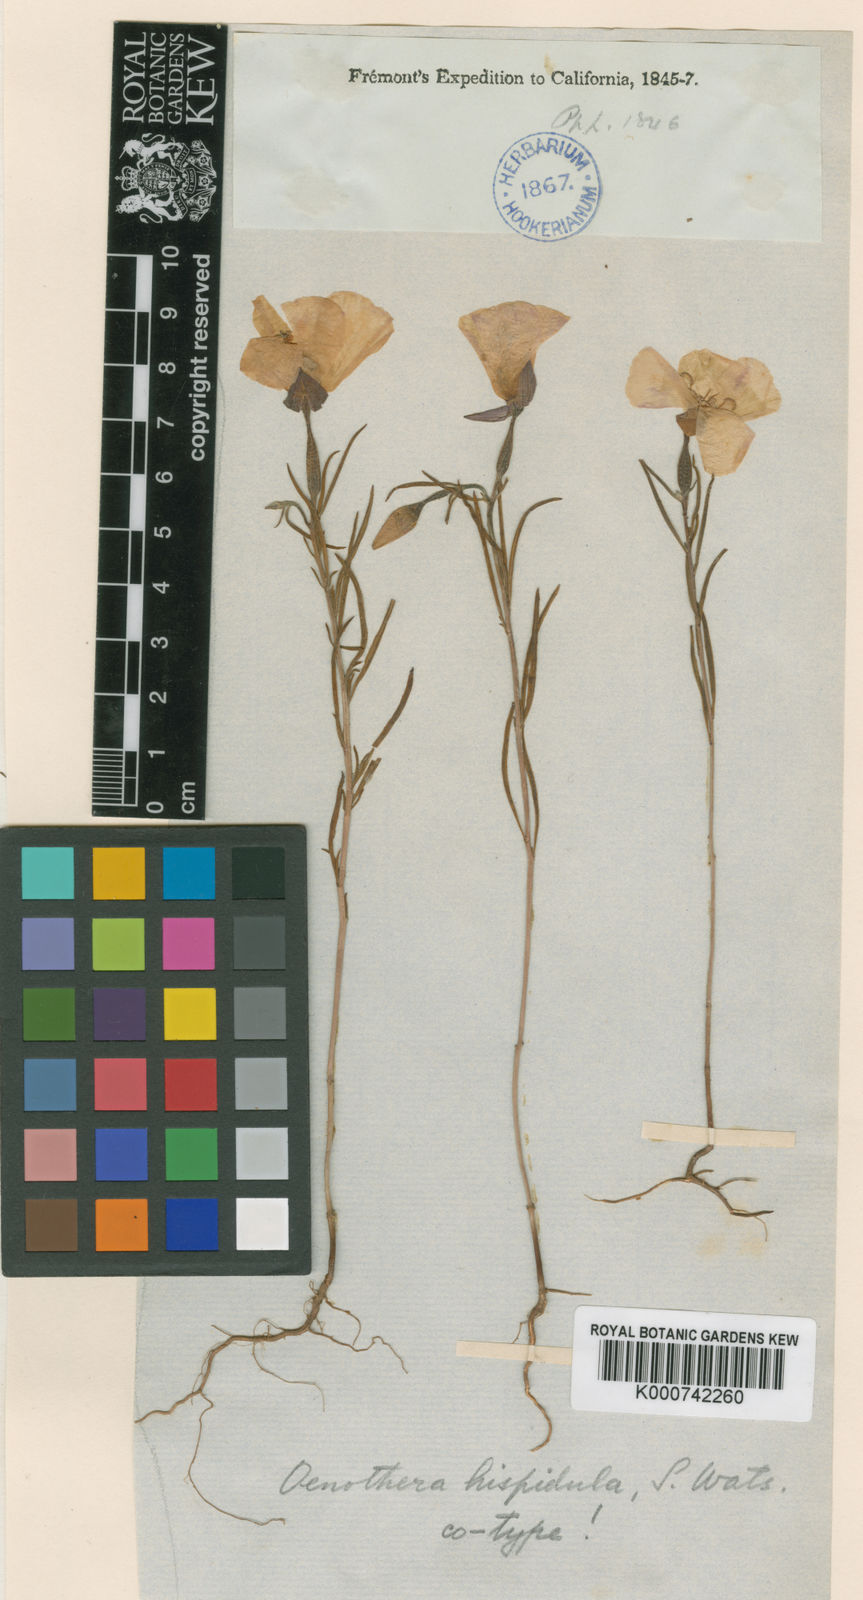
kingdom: Plantae
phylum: Tracheophyta
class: Magnoliopsida
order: Myrtales
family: Onagraceae
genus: Clarkia
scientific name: Clarkia arcuata
